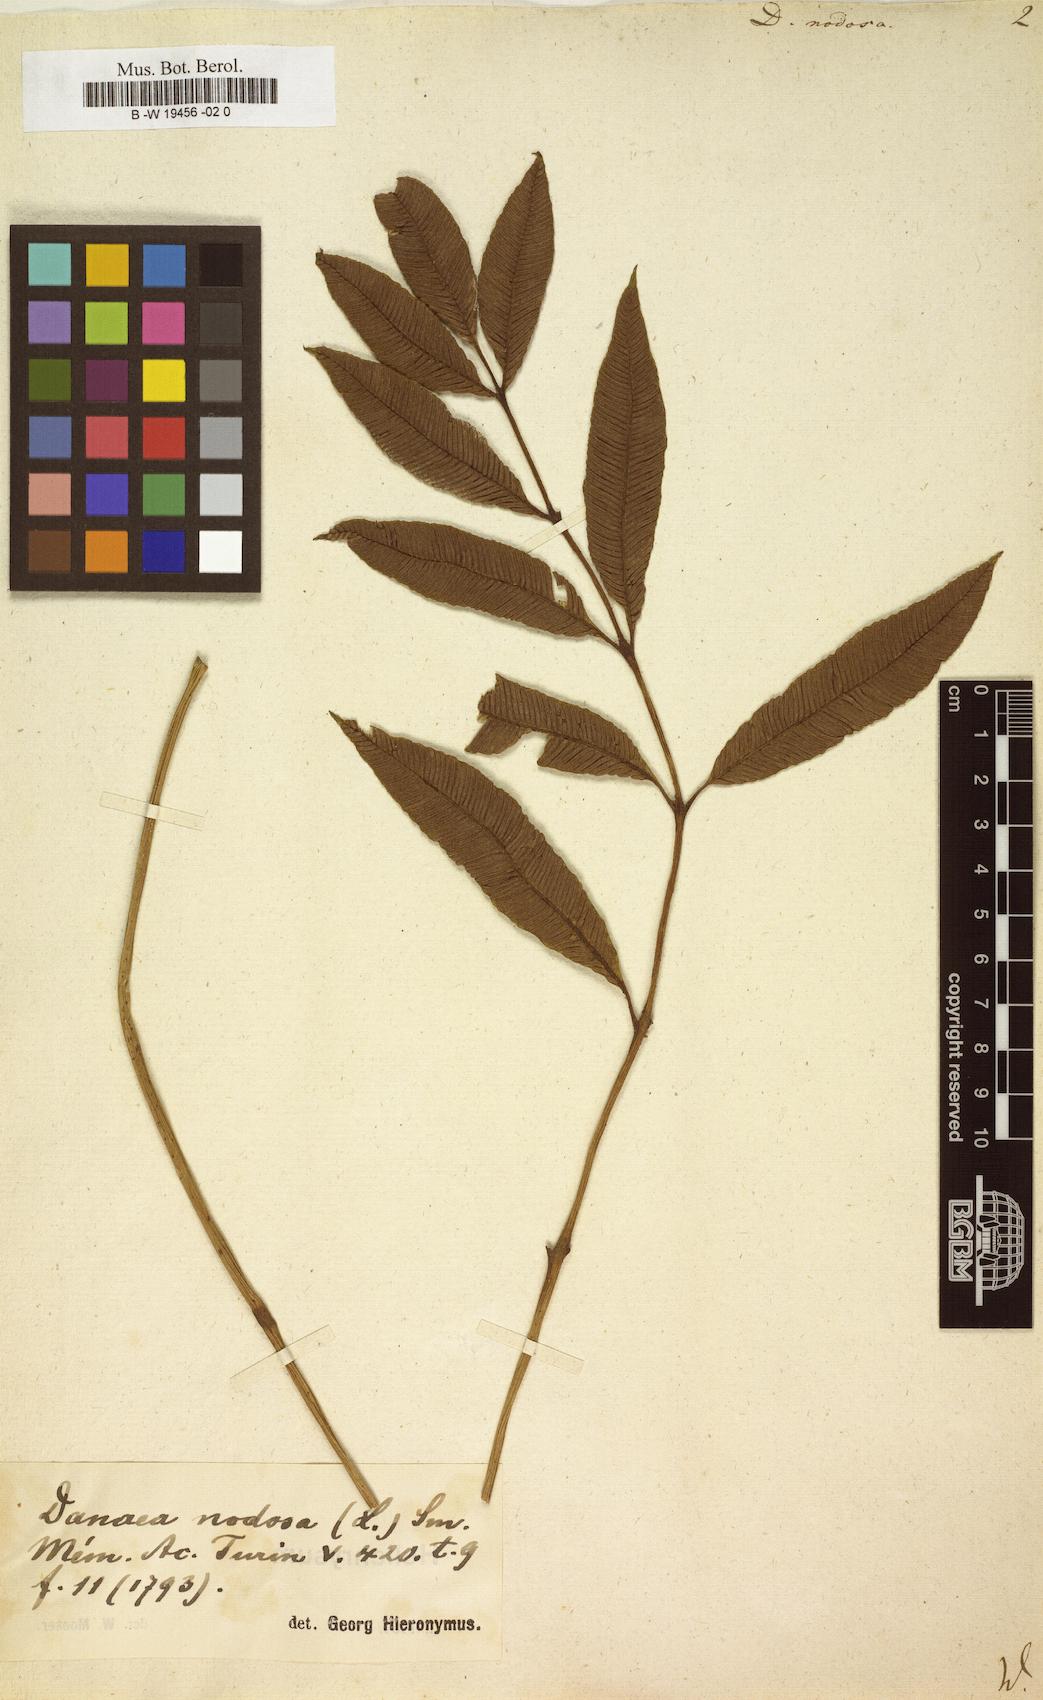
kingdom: Plantae
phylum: Tracheophyta
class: Polypodiopsida
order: Marattiales
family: Marattiaceae
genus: Ptisana
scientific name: Ptisana attenuata
